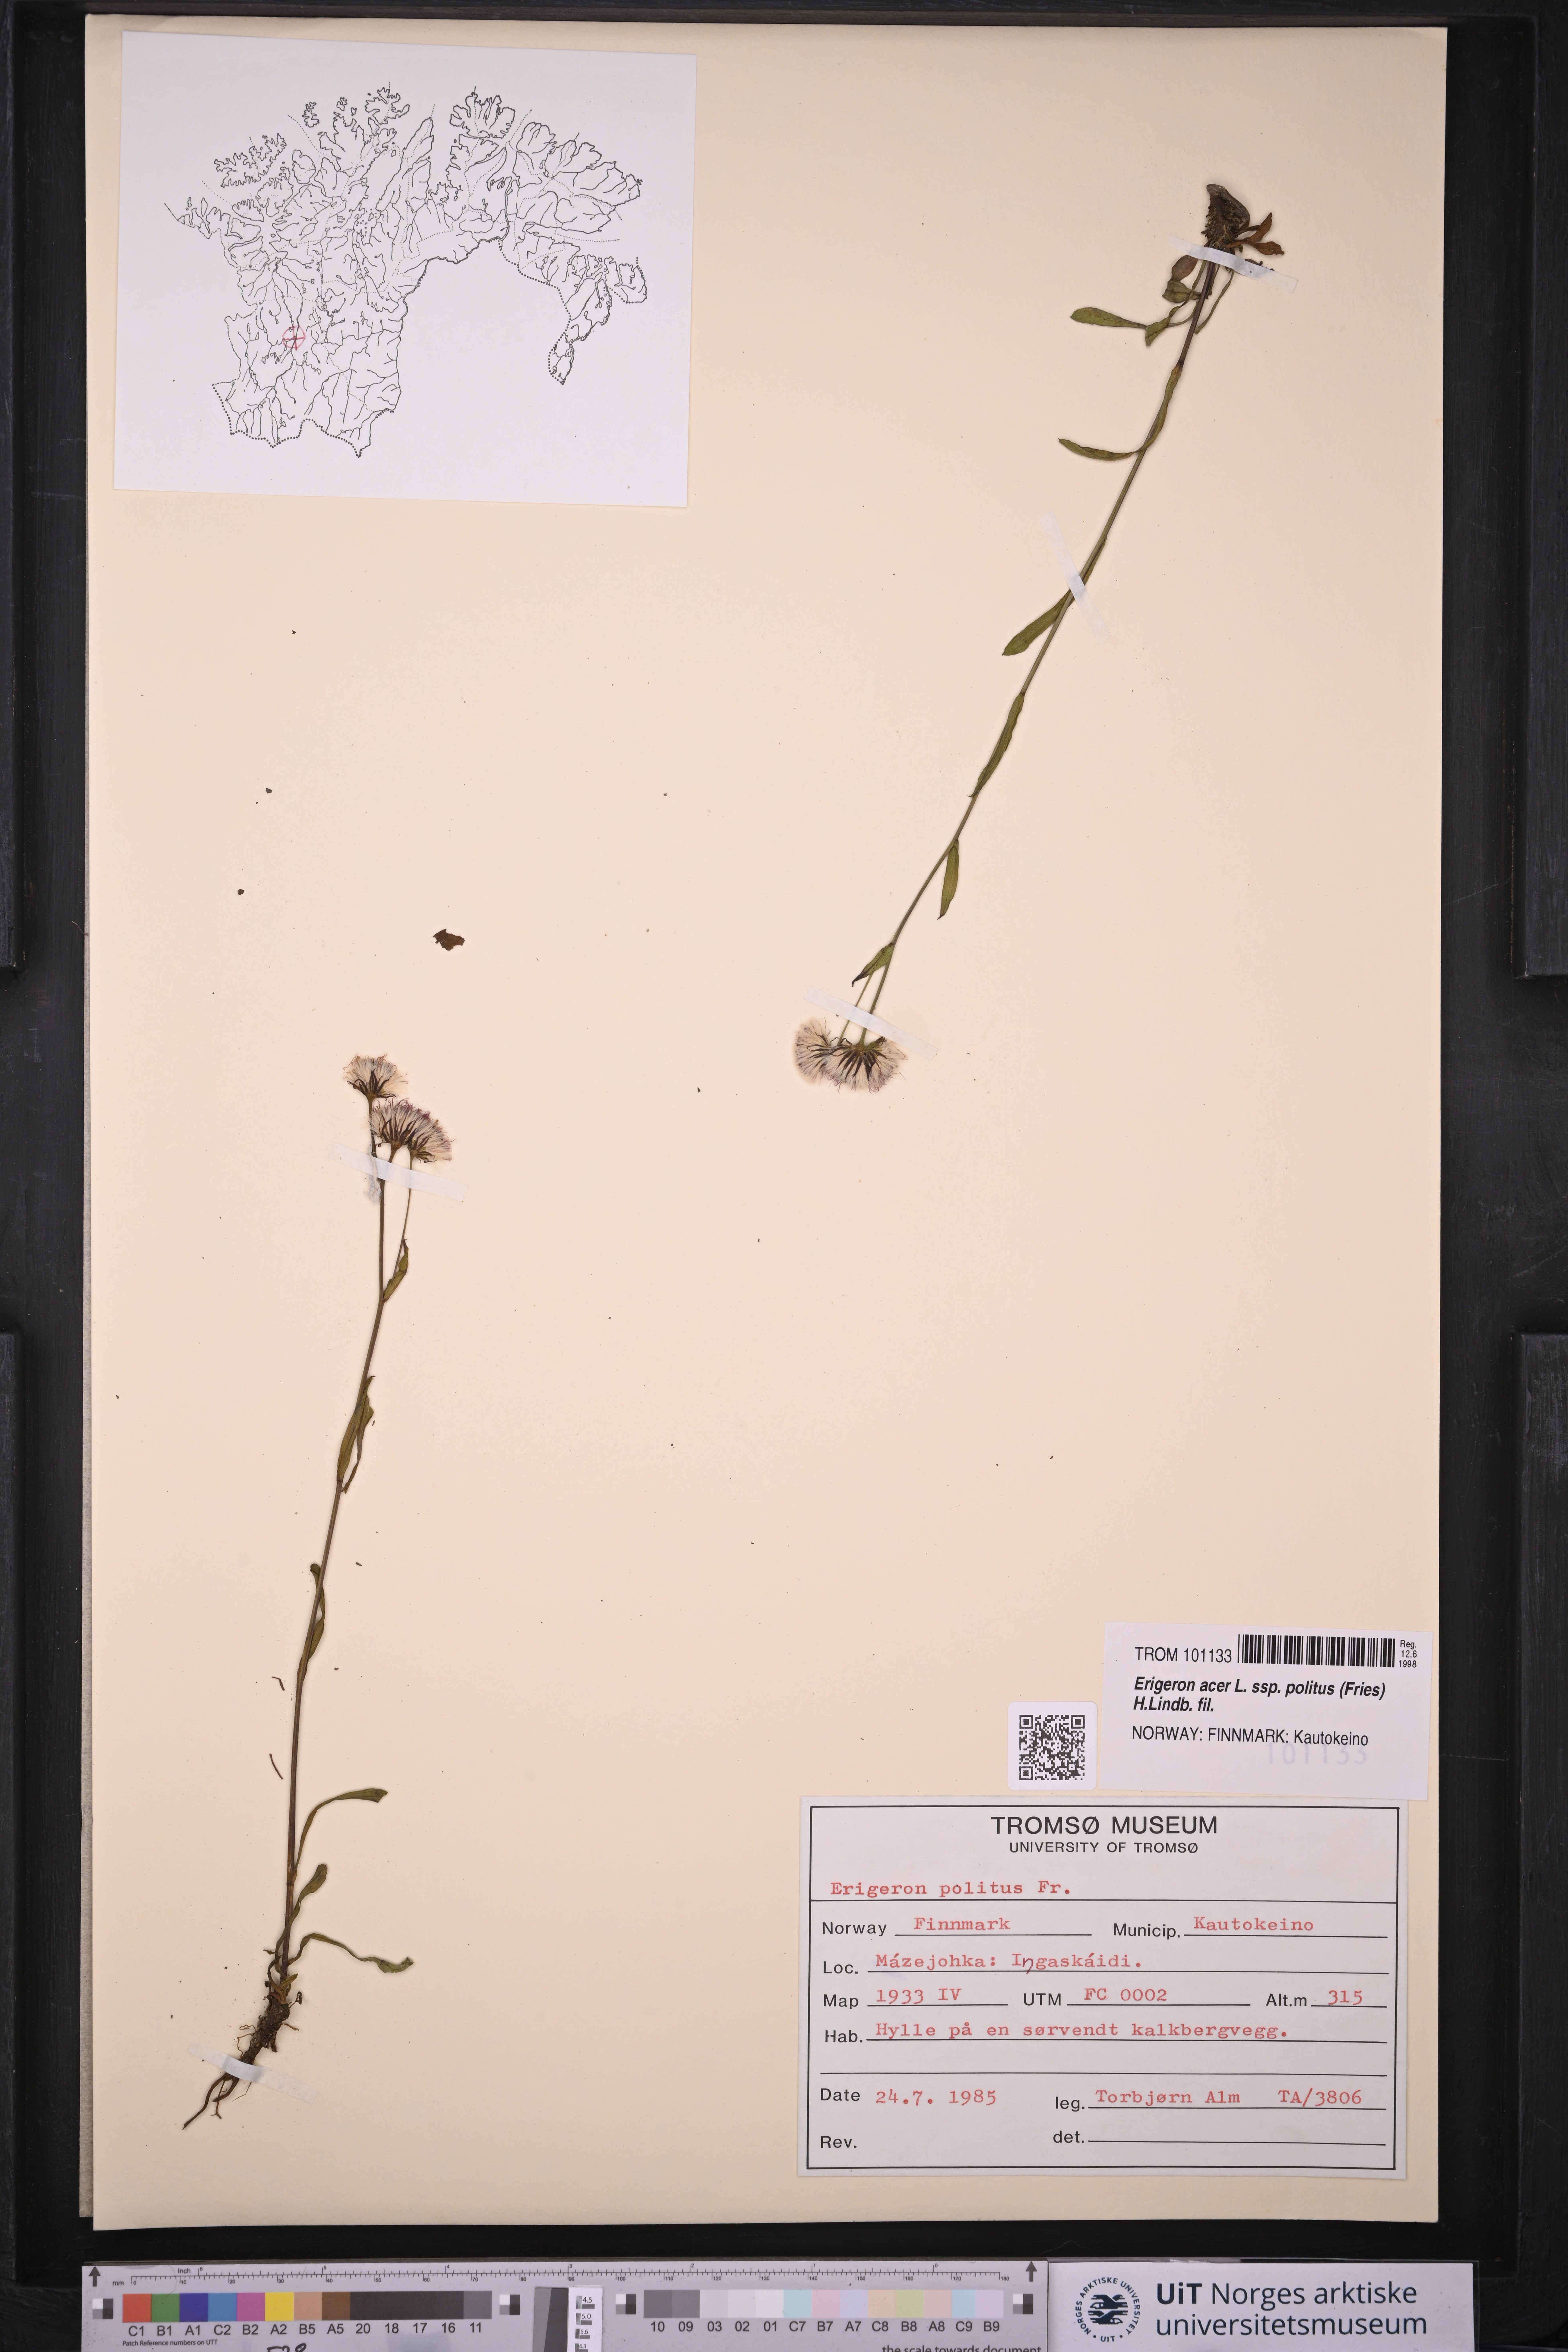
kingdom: Plantae
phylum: Tracheophyta
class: Magnoliopsida
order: Asterales
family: Asteraceae
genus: Erigeron
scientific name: Erigeron politus
